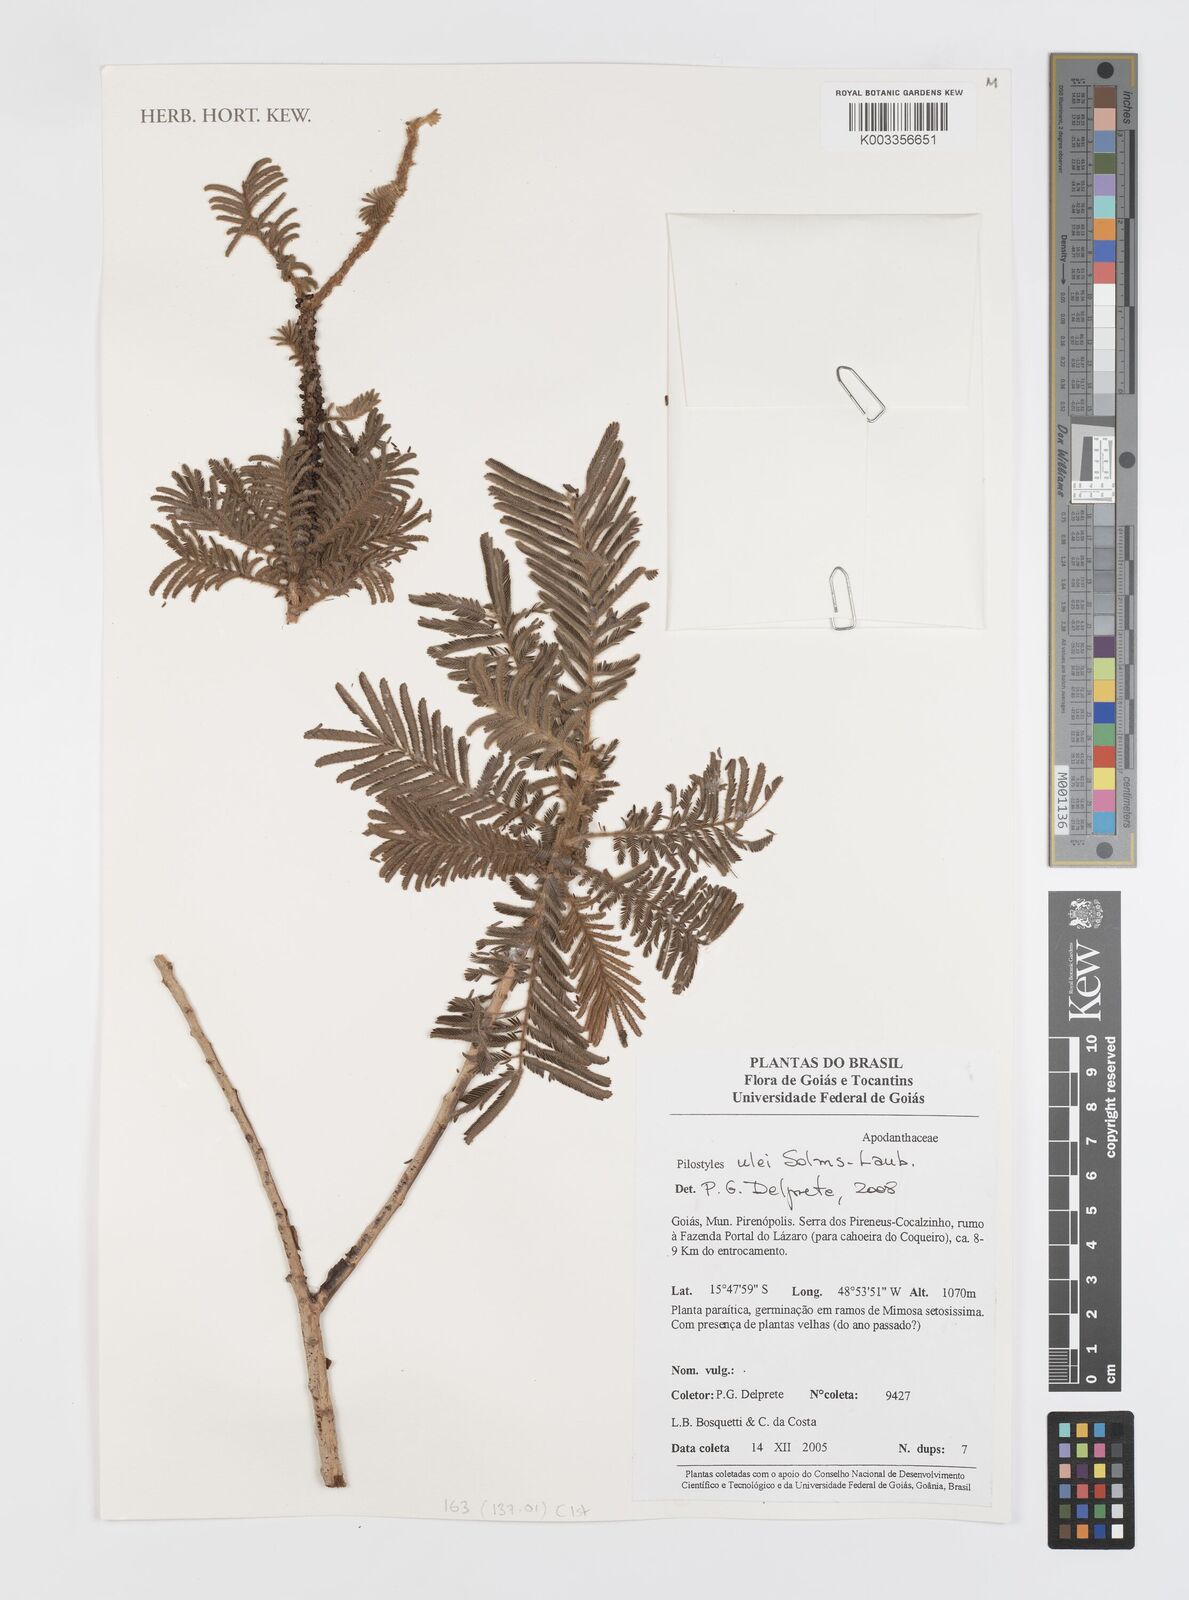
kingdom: Plantae
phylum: Tracheophyta
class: Magnoliopsida
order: Cucurbitales
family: Apodanthaceae
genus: Pilostyles
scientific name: Pilostyles blanchetii
